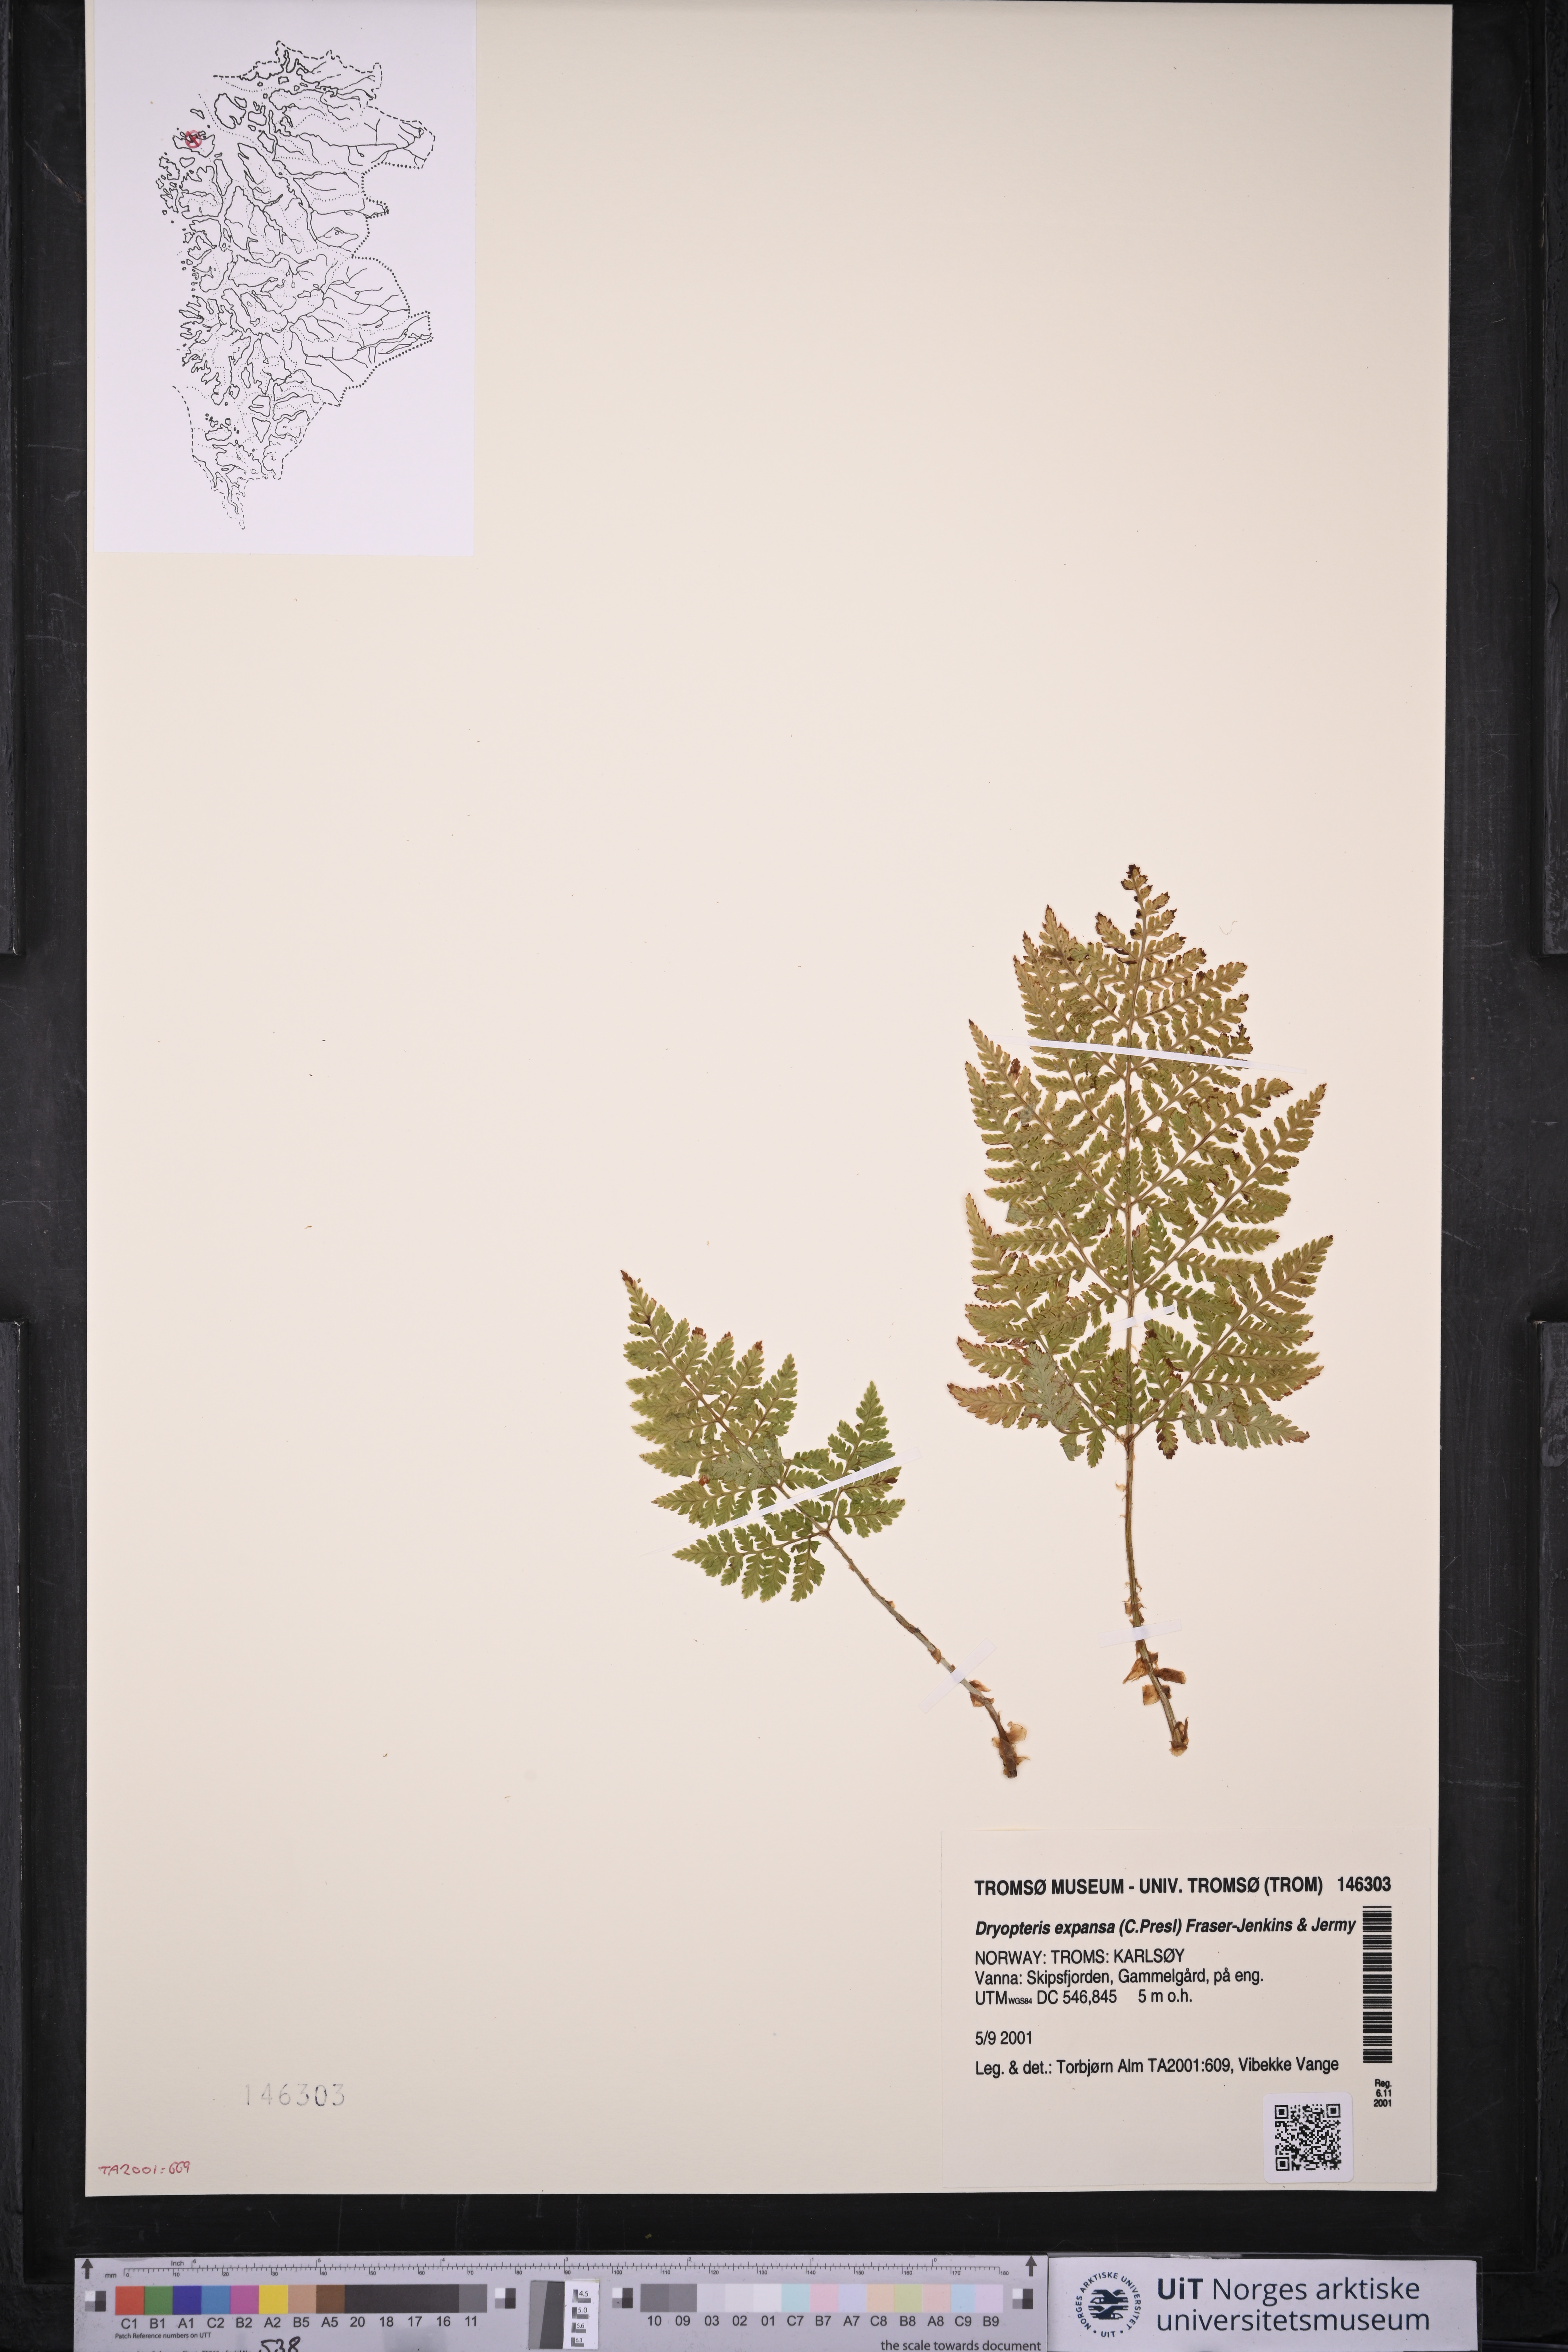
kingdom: Plantae
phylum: Tracheophyta
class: Polypodiopsida
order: Polypodiales
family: Dryopteridaceae
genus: Dryopteris
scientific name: Dryopteris expansa
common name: Northern buckler fern
